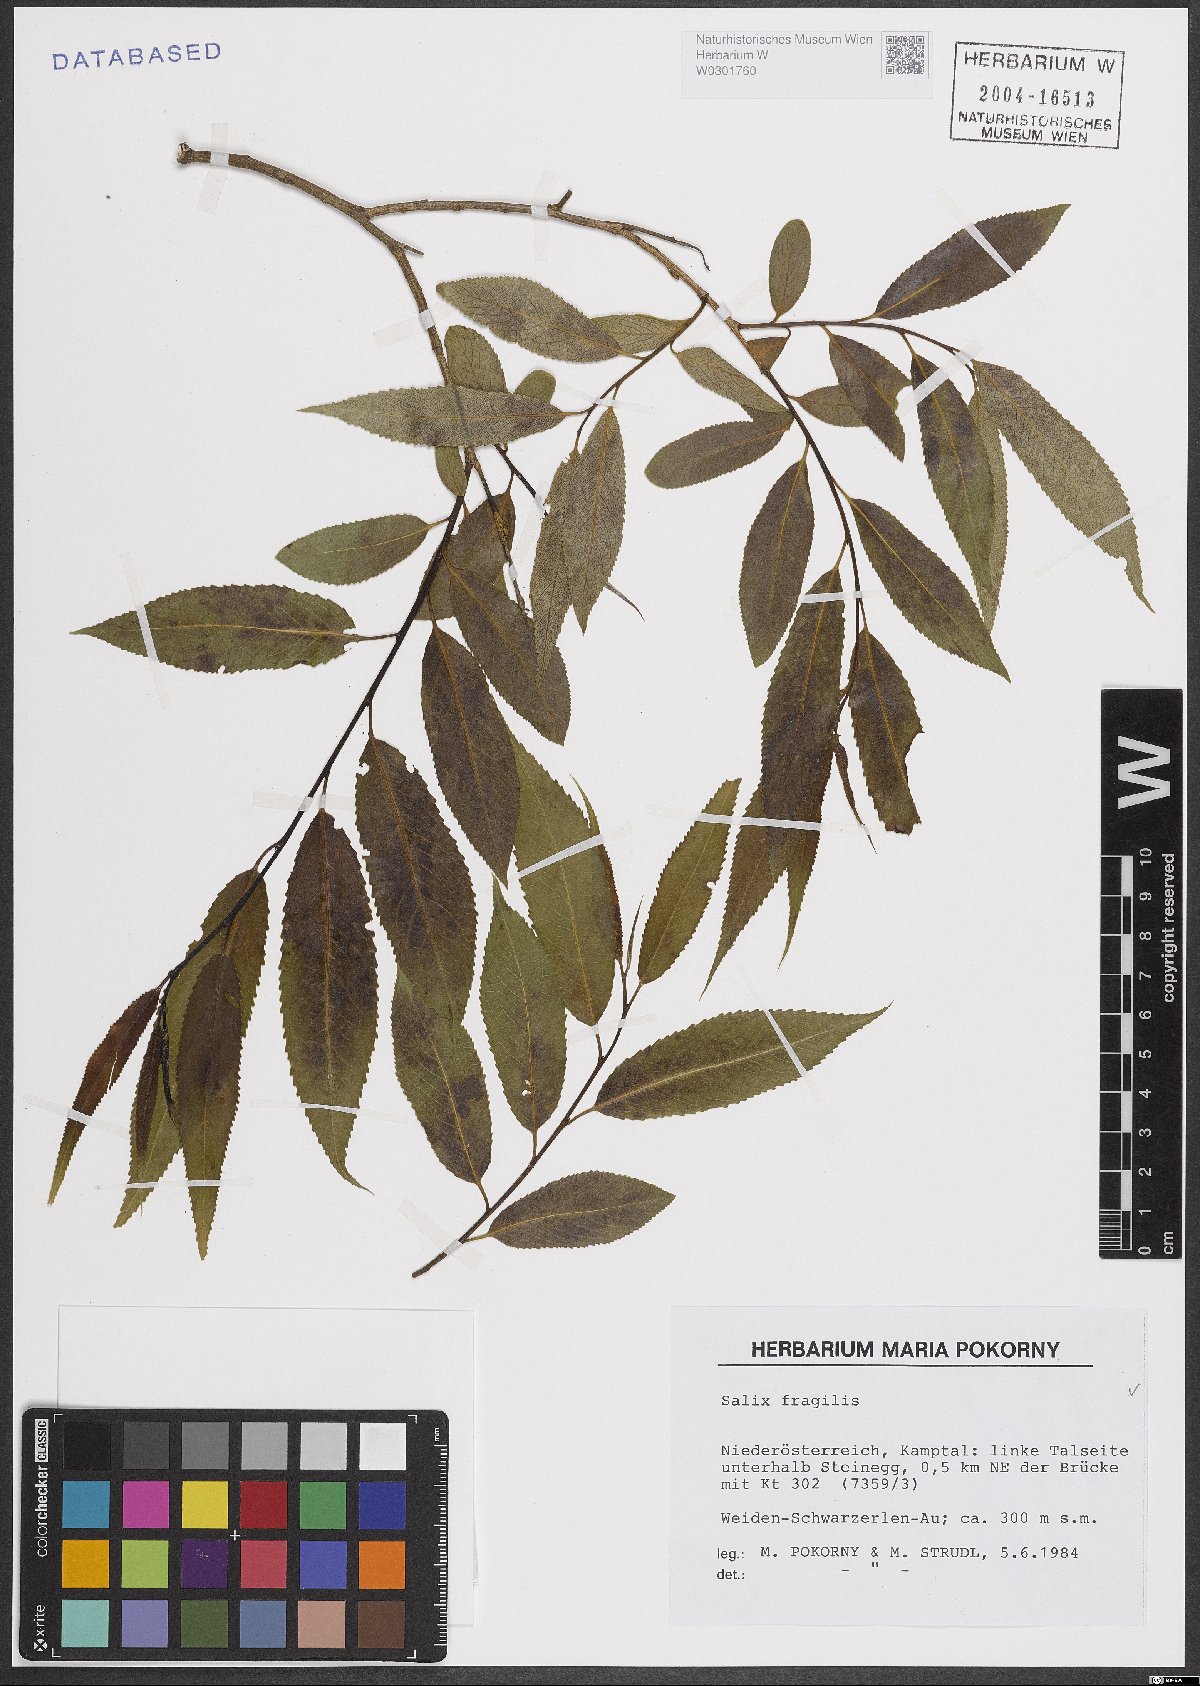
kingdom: Plantae
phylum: Tracheophyta
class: Magnoliopsida
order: Malpighiales
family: Salicaceae
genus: Salix
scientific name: Salix fragilis
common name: Crack willow
